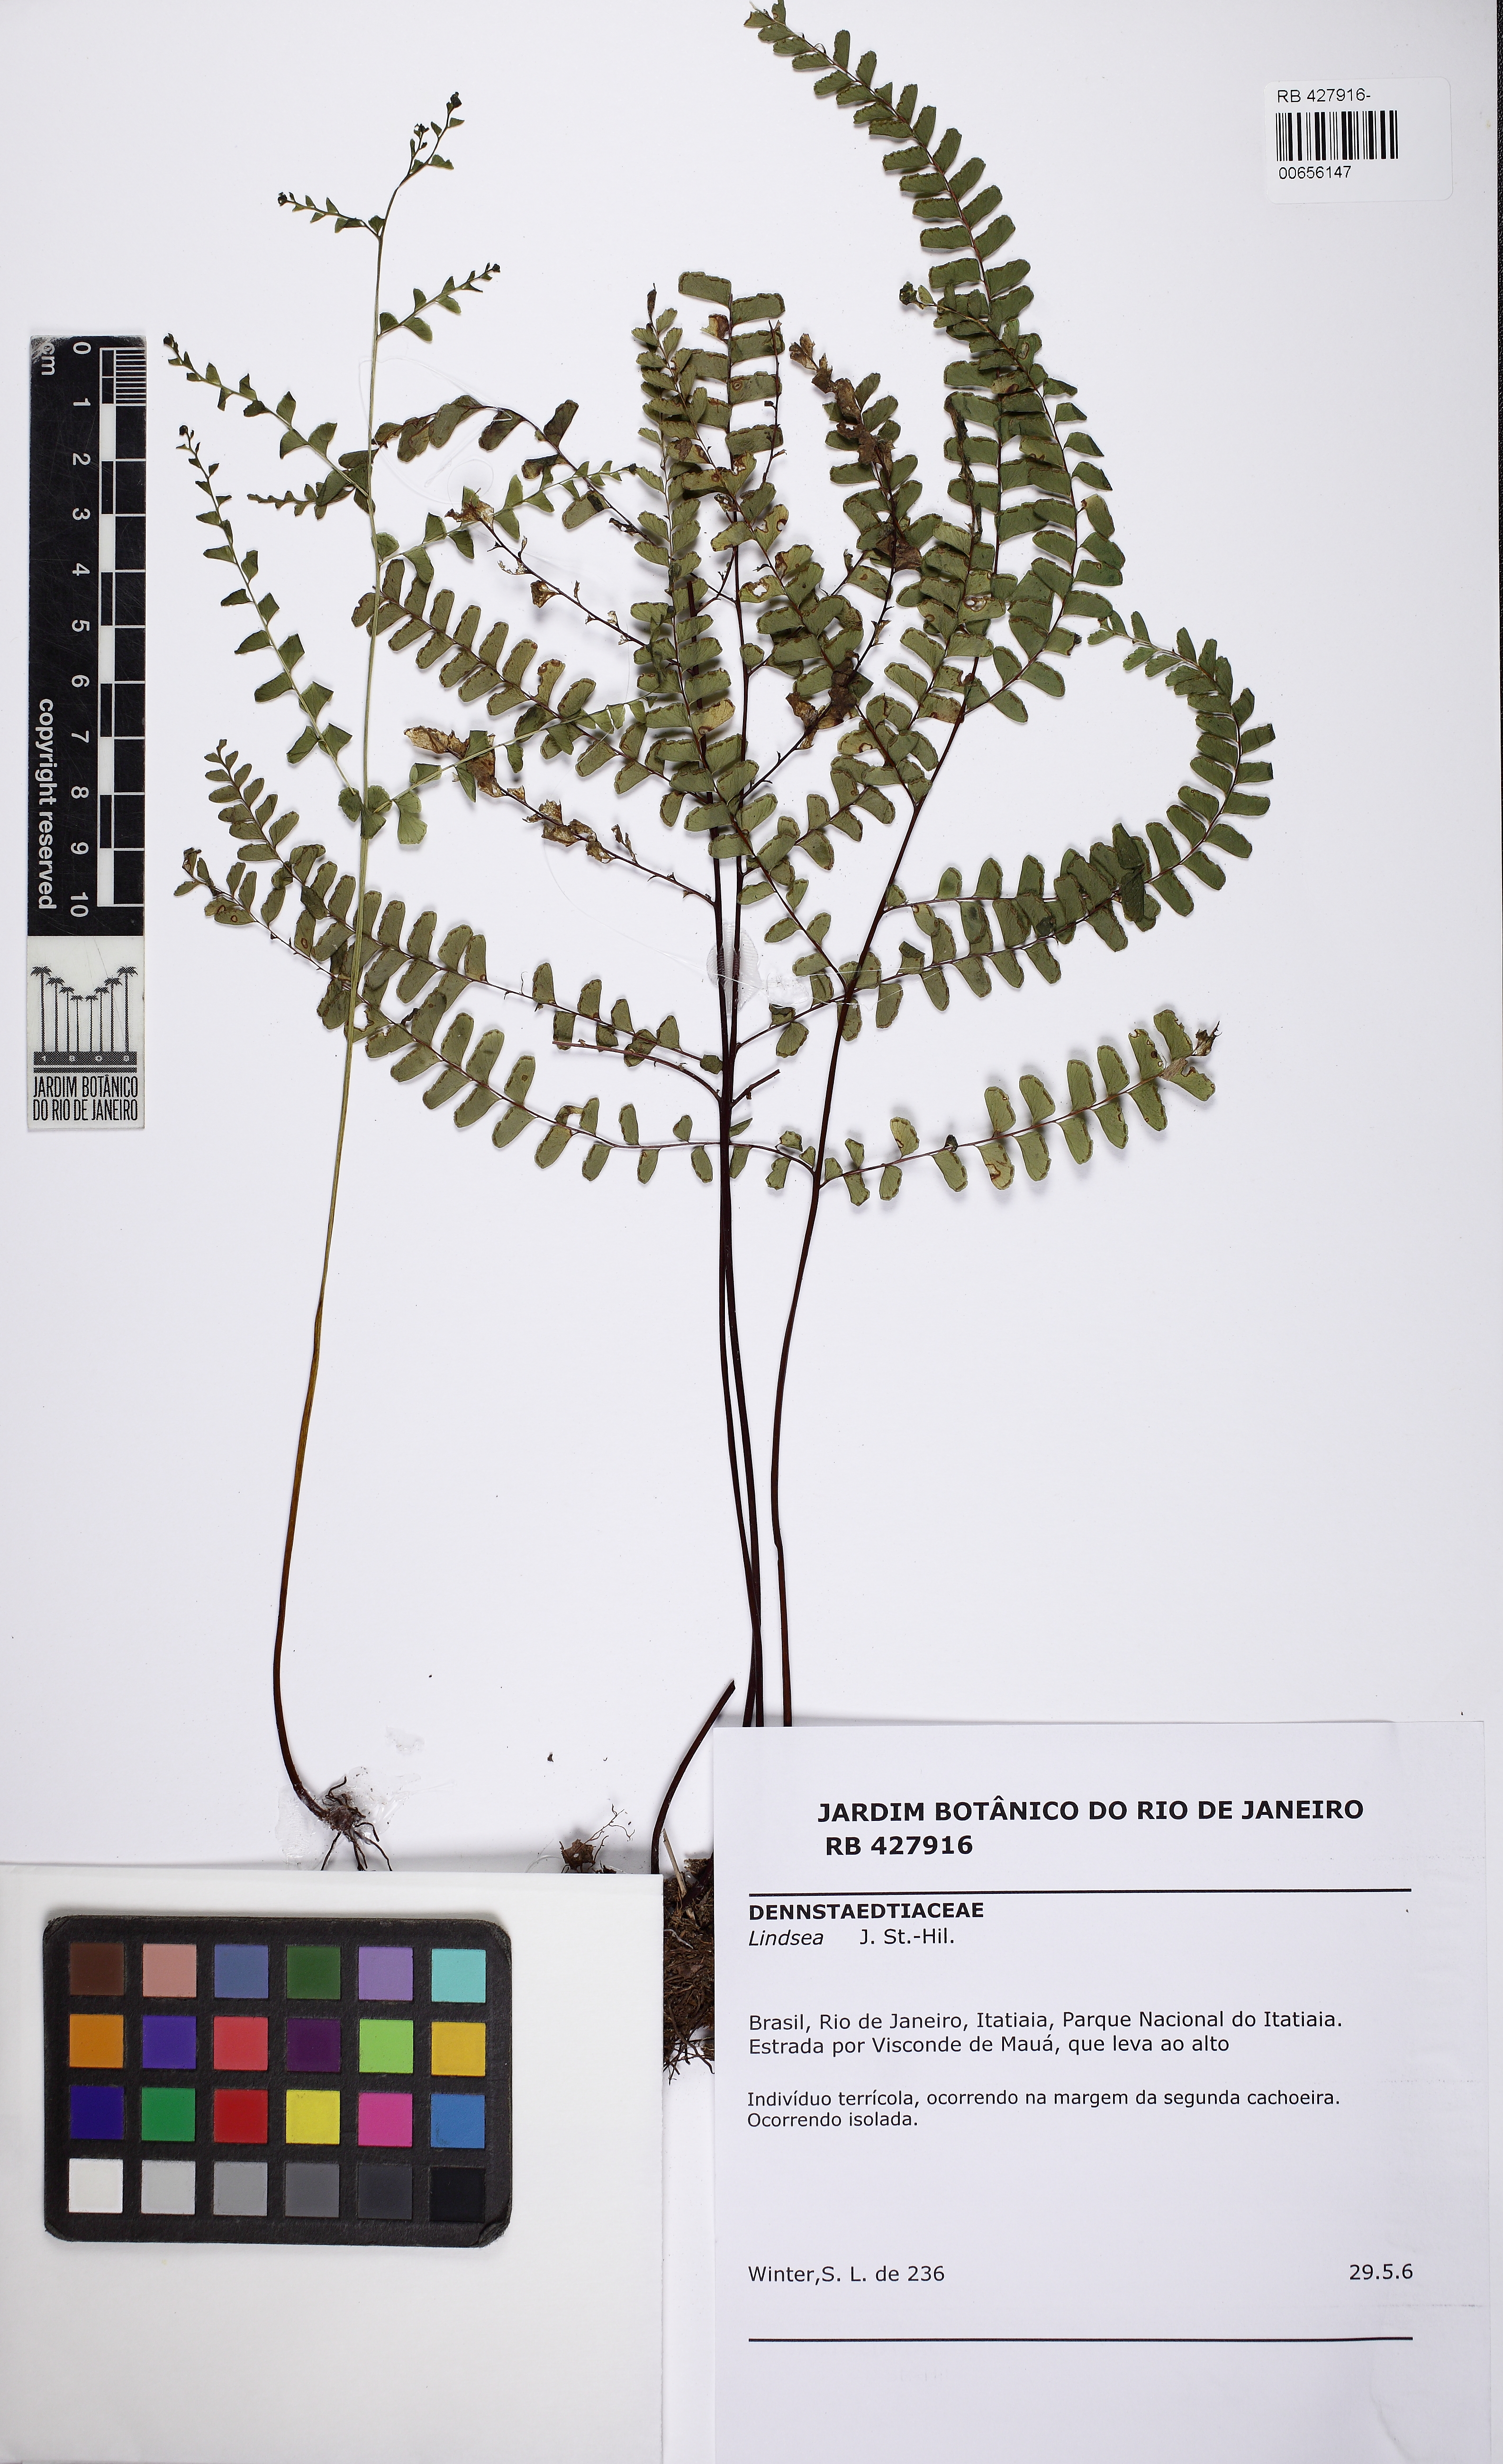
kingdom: Plantae
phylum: Tracheophyta
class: Polypodiopsida
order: Polypodiales
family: Lindsaeaceae
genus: Lindsaea
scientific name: Lindsaea ovoidea
